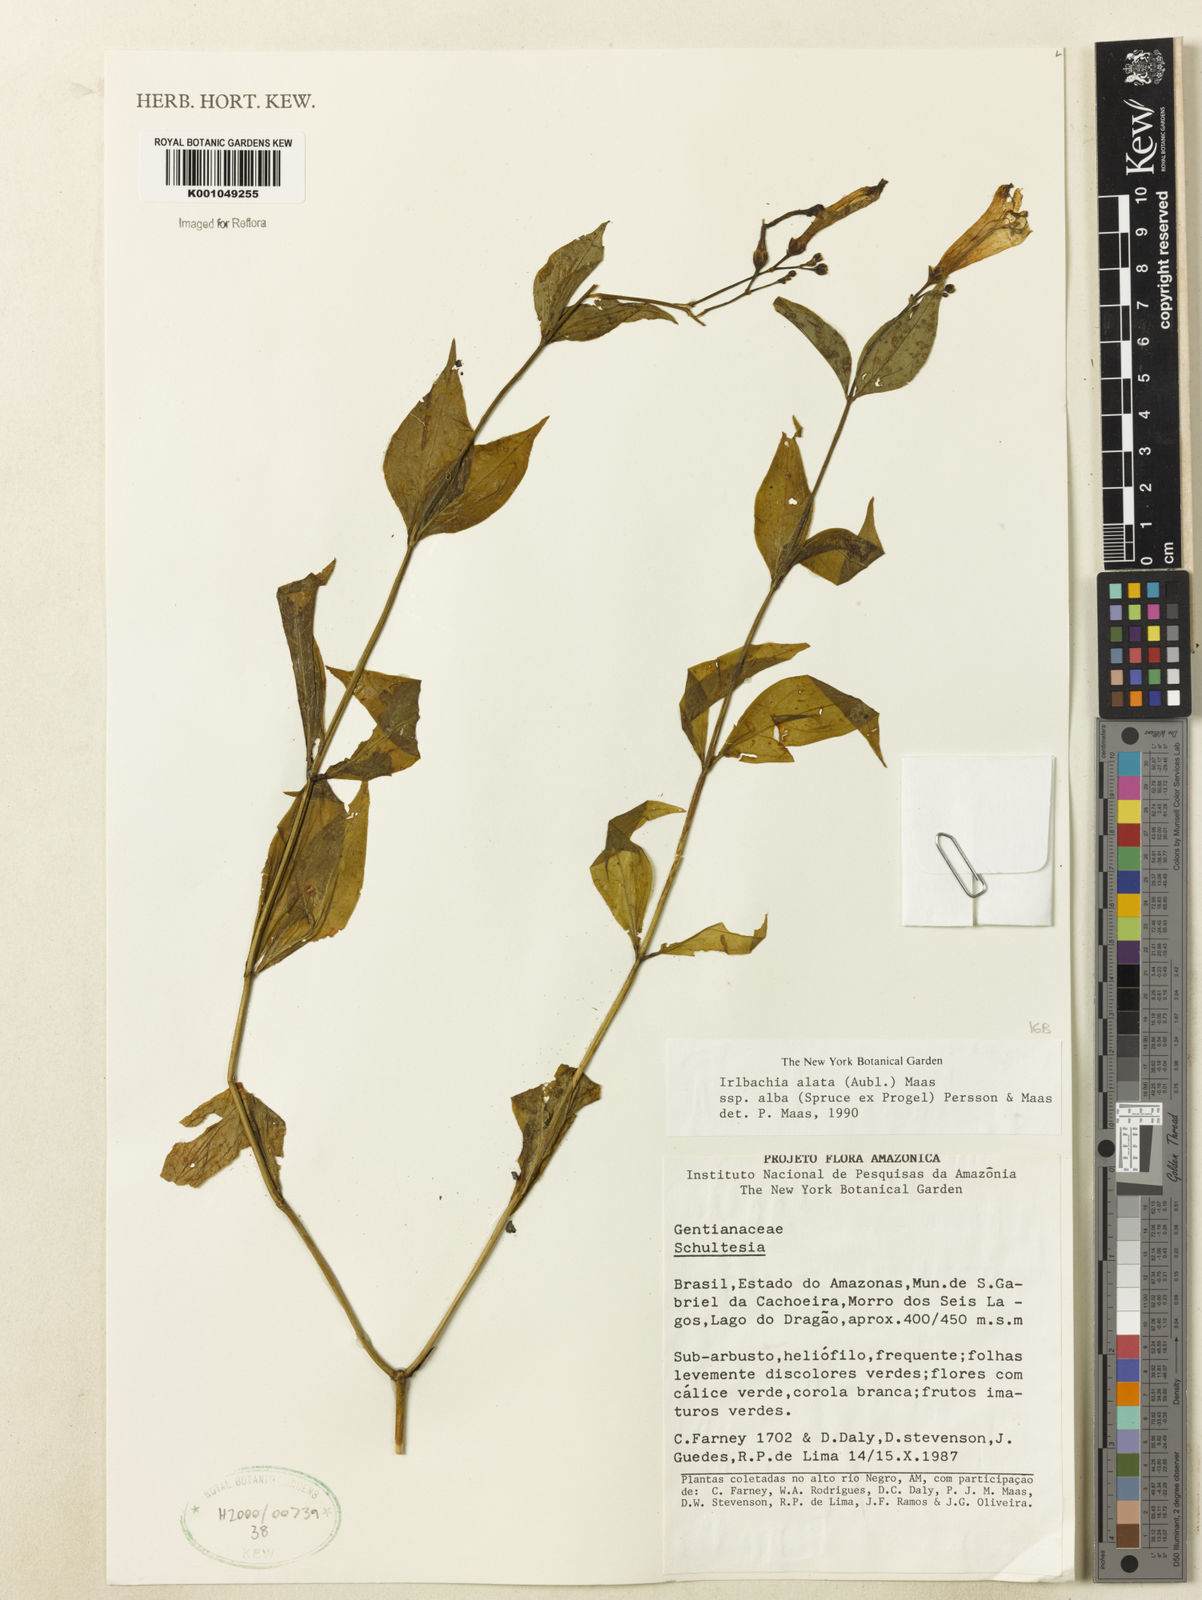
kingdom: Plantae
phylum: Tracheophyta
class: Magnoliopsida
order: Gentianales
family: Gentianaceae
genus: Chelonanthus
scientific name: Chelonanthus albus
